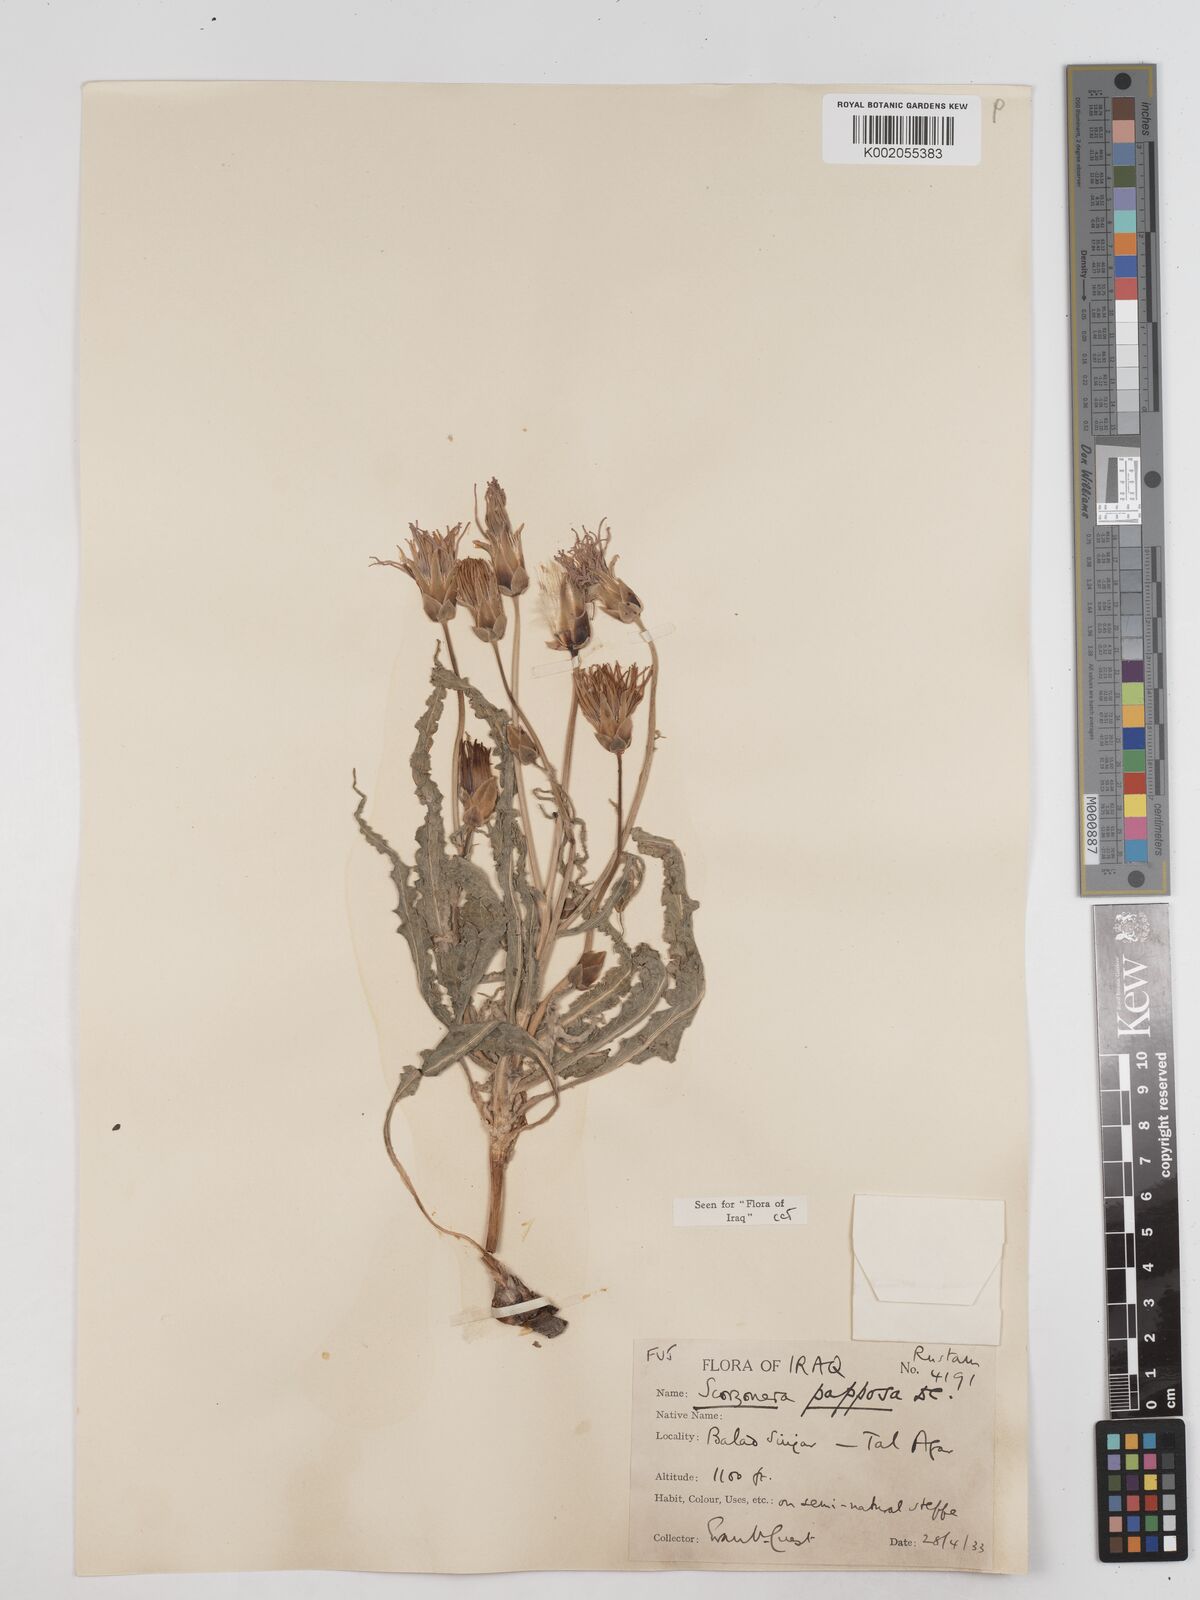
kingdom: Plantae
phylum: Tracheophyta
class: Magnoliopsida
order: Asterales
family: Asteraceae
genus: Pseudopodospermum
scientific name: Pseudopodospermum papposum
